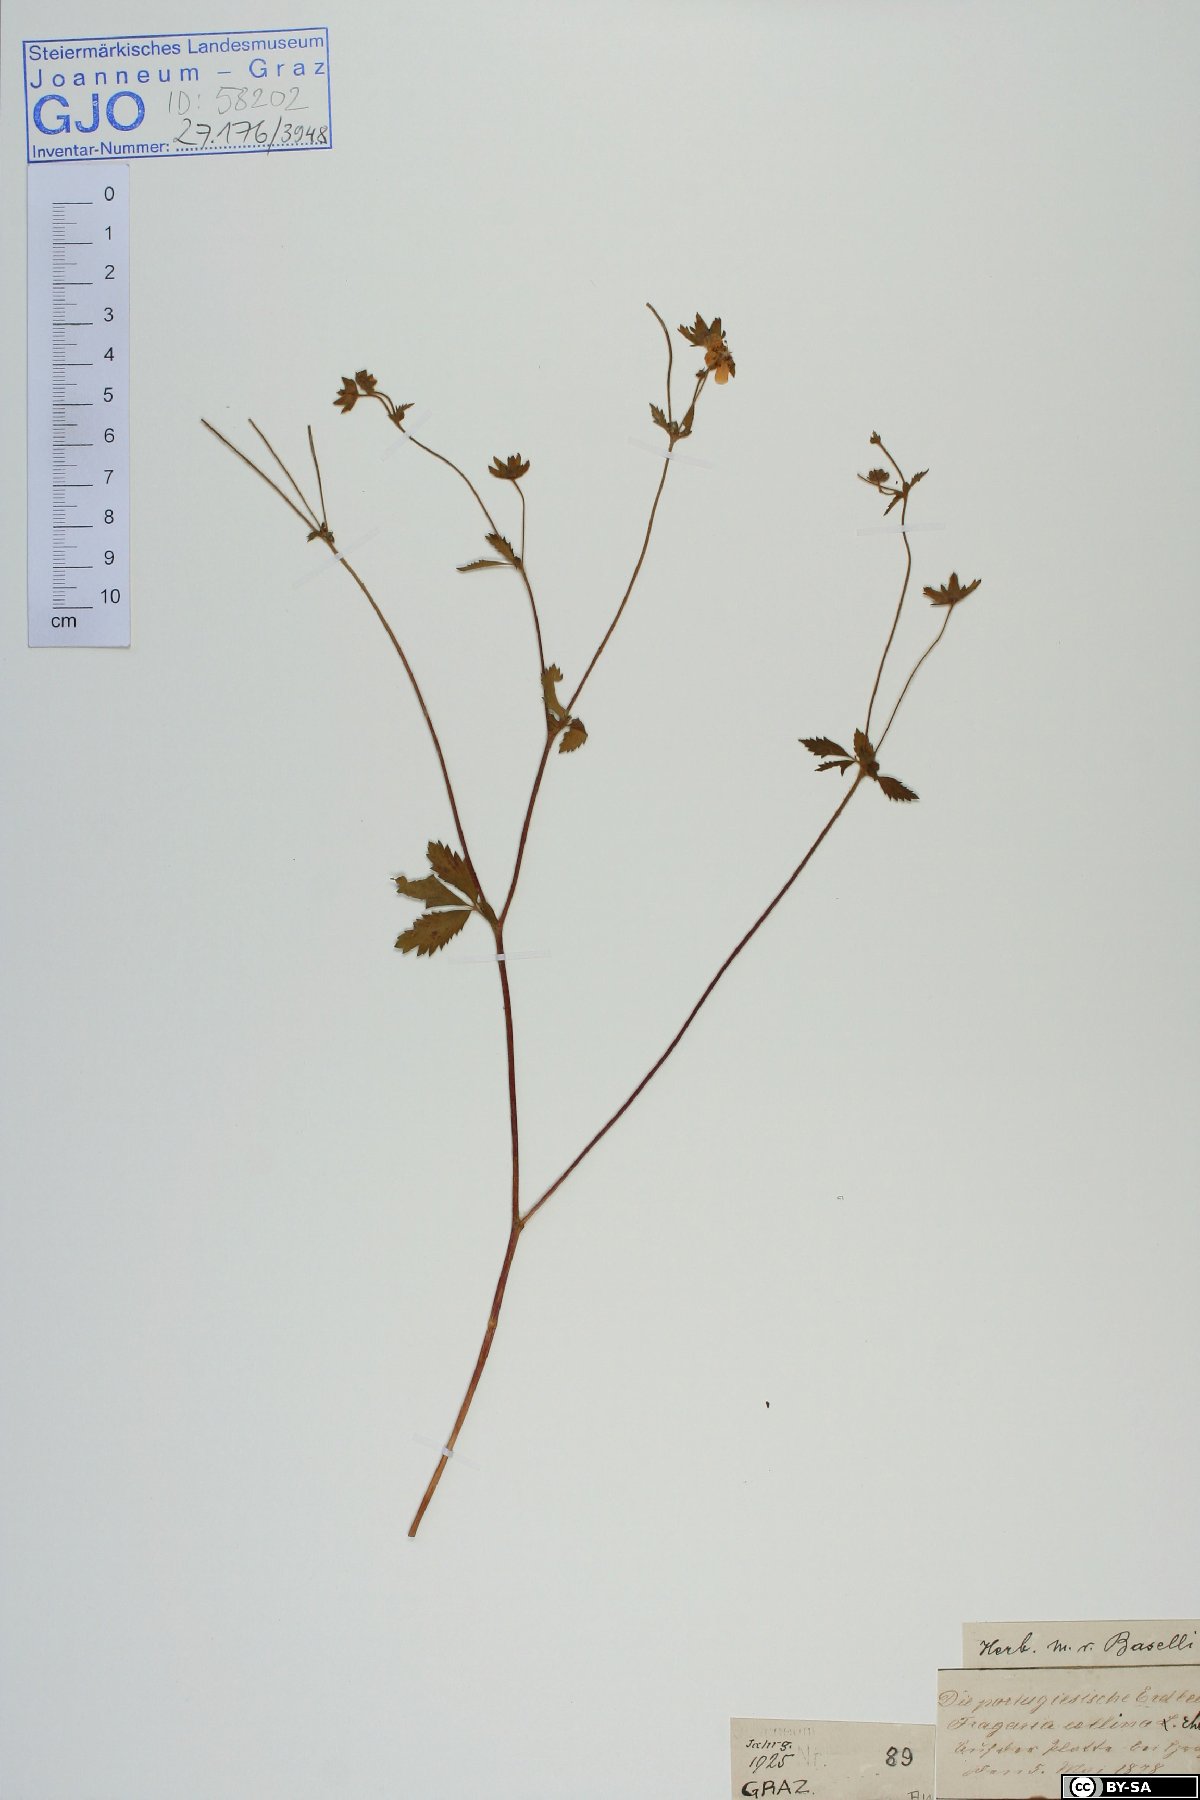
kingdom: Plantae
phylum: Tracheophyta
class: Magnoliopsida
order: Rosales
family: Rosaceae
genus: Drymocallis
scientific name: Drymocallis rupestris
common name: Rock cinquefoil
